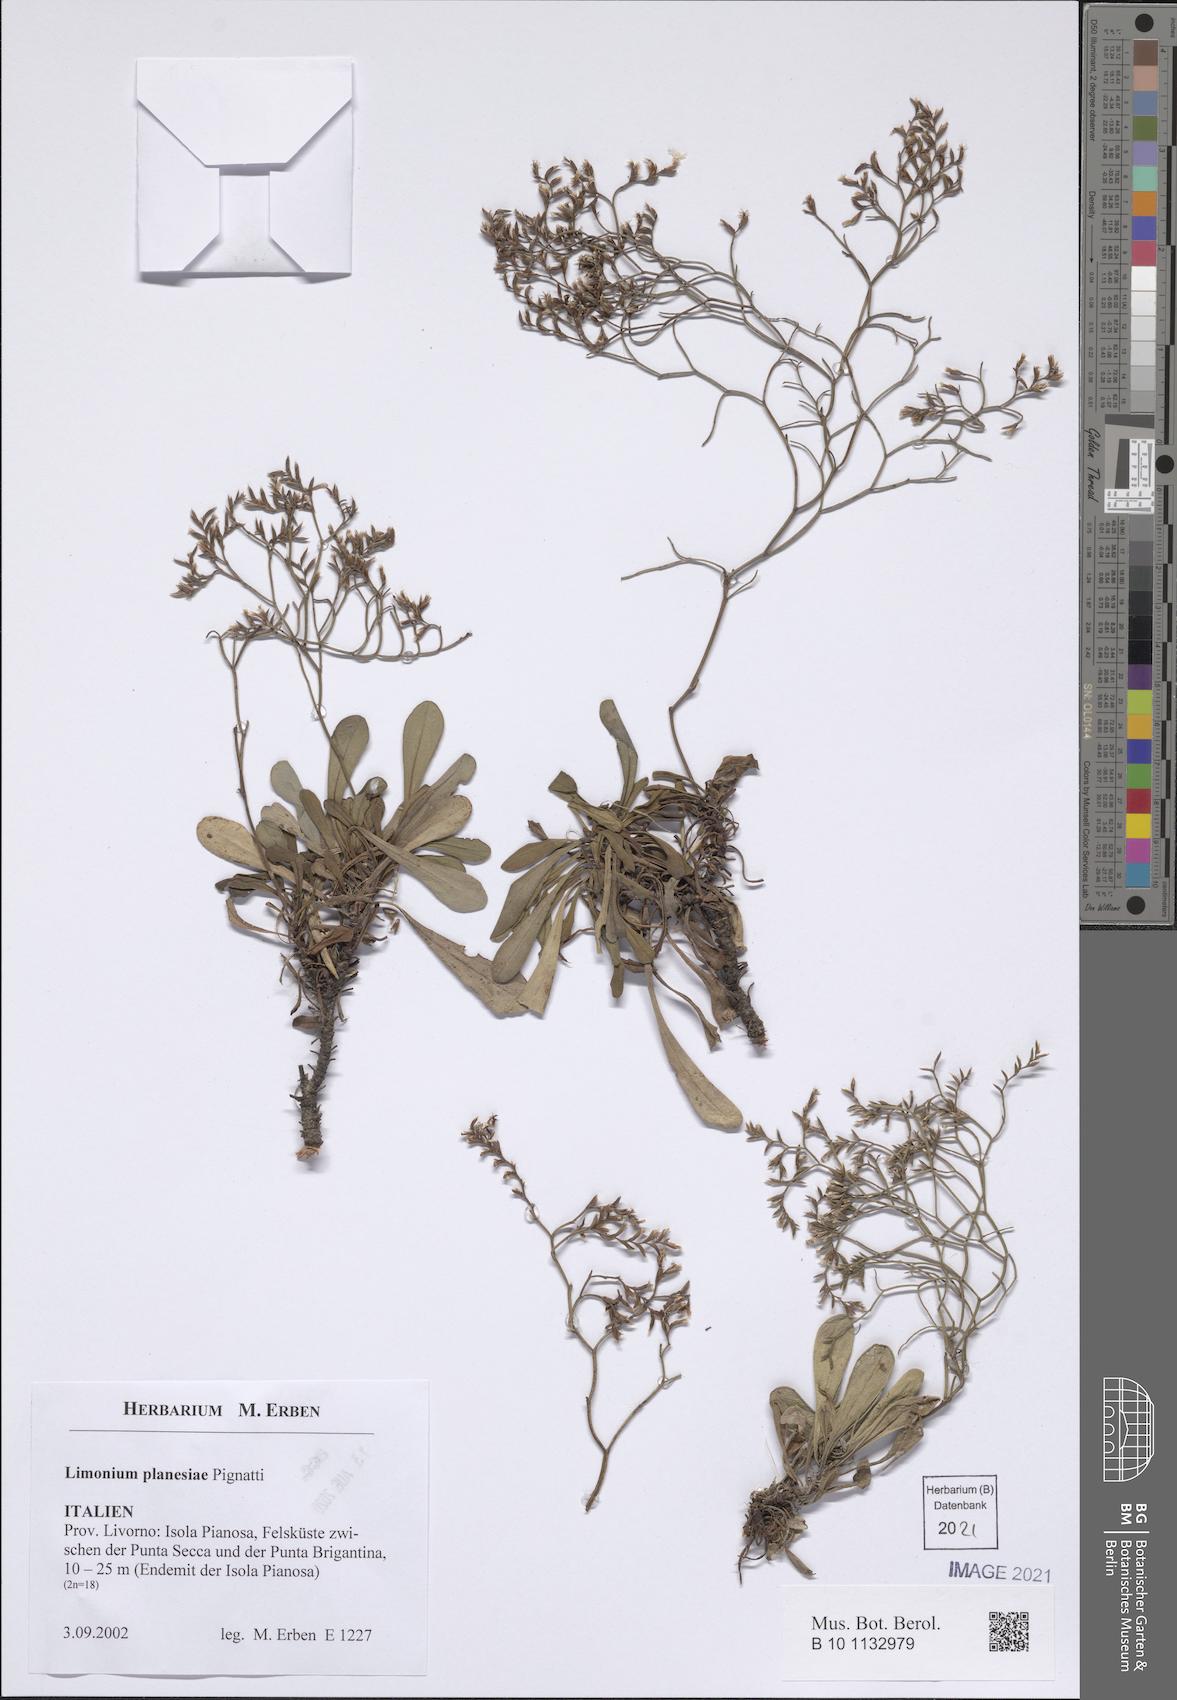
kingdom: Plantae
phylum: Tracheophyta
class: Magnoliopsida
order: Caryophyllales
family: Plumbaginaceae
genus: Limonium
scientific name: Limonium planesiae
